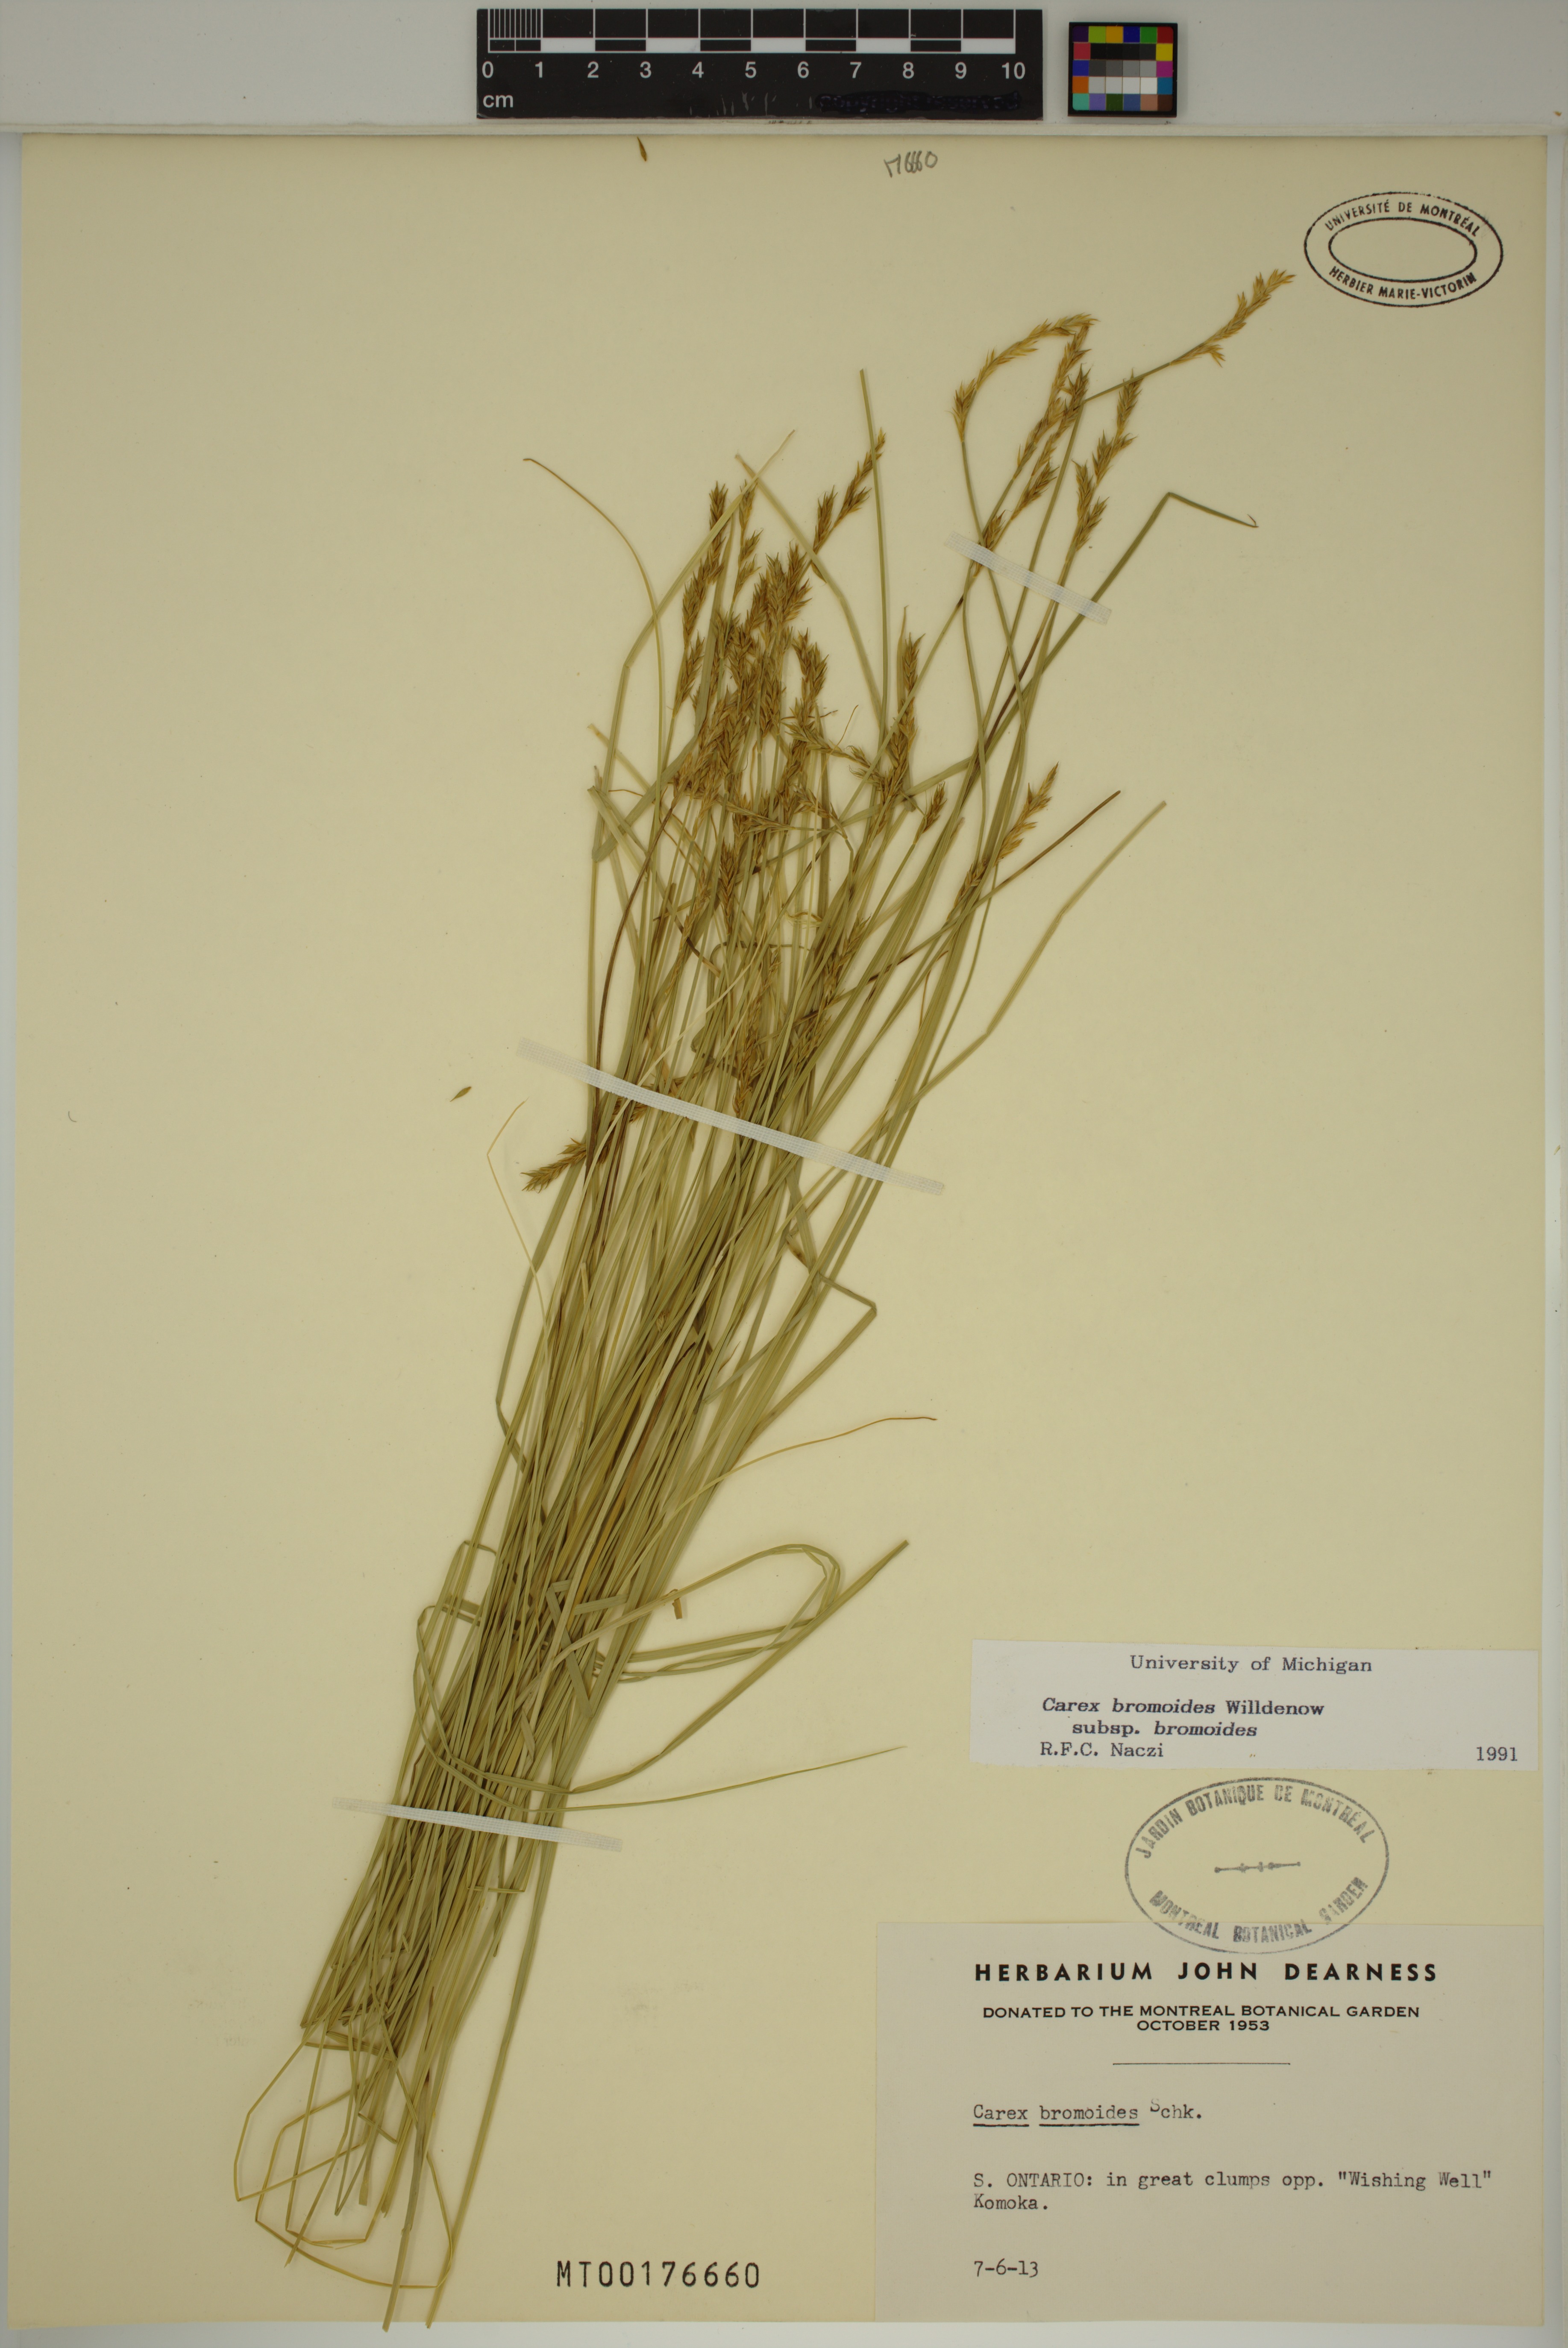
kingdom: Plantae
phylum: Tracheophyta
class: Liliopsida
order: Poales
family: Cyperaceae
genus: Carex
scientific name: Carex bromoides
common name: Brome hummock sedge
